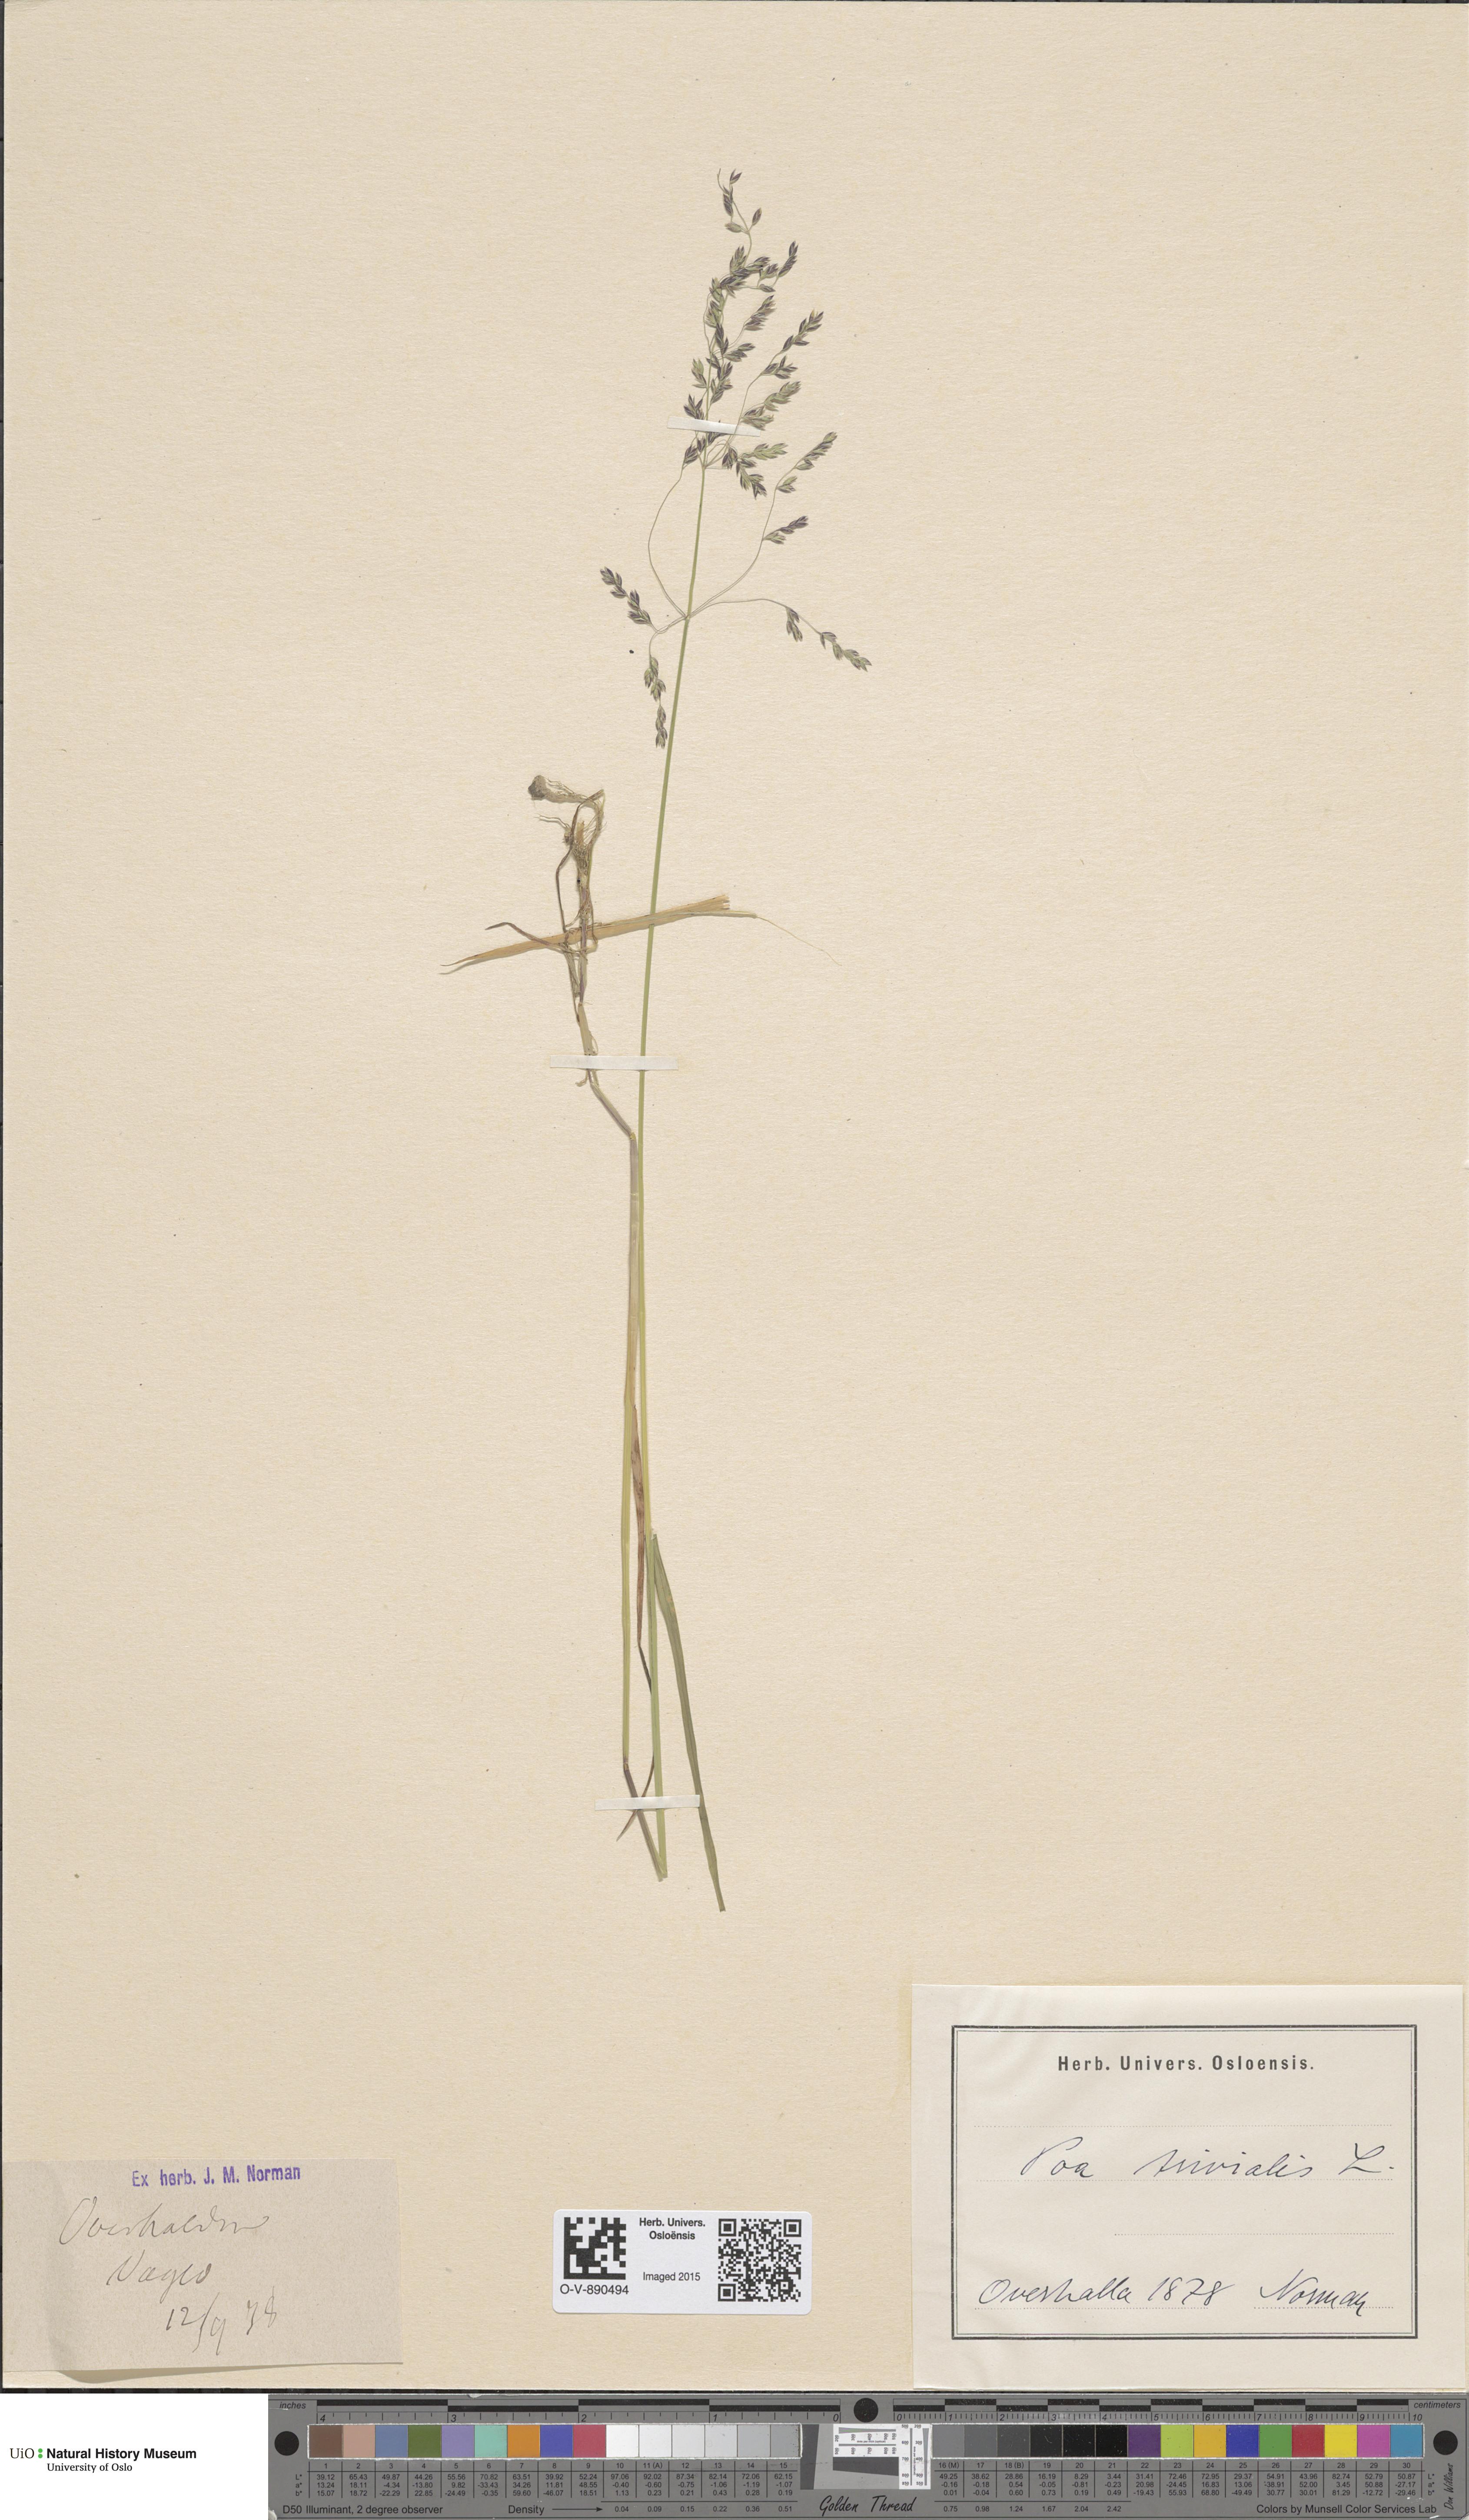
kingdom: Plantae
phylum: Tracheophyta
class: Liliopsida
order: Poales
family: Poaceae
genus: Poa
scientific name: Poa trivialis
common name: Rough bluegrass
